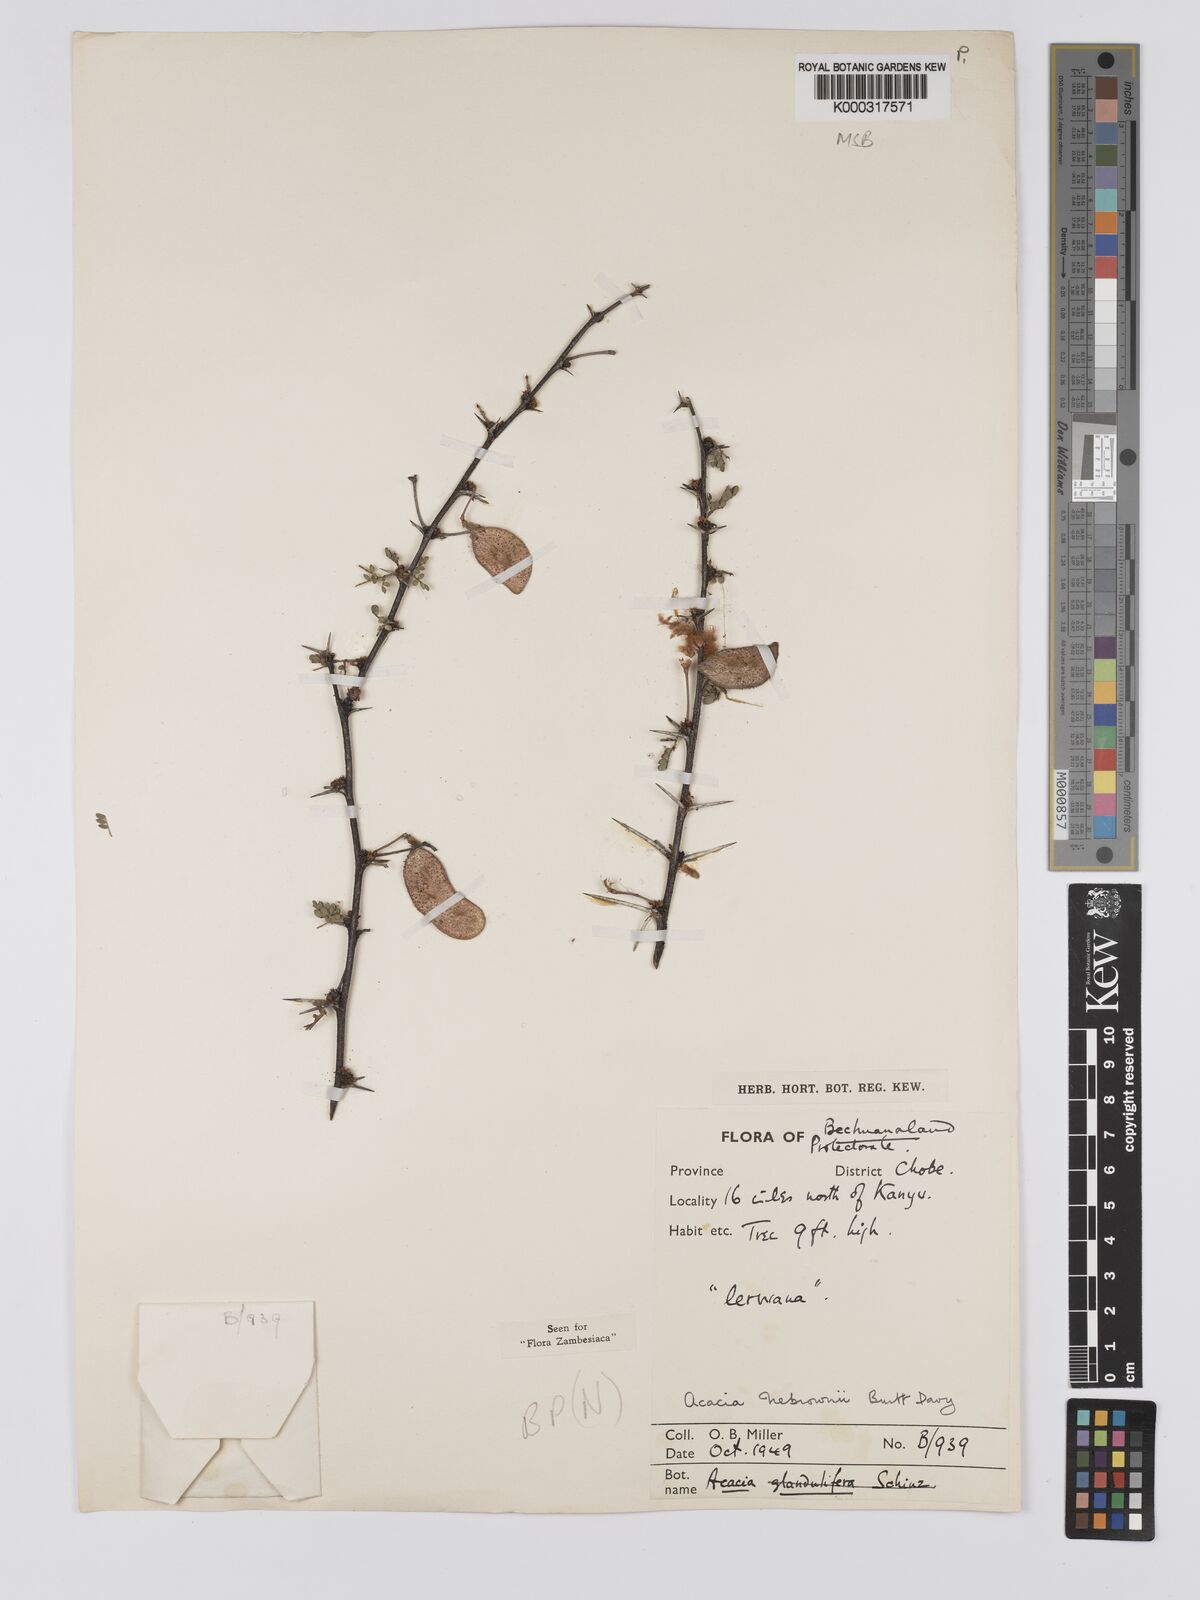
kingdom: Plantae
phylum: Tracheophyta
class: Magnoliopsida
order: Fabales
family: Fabaceae
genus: Vachellia
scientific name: Vachellia nebrownii
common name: Water acacia
